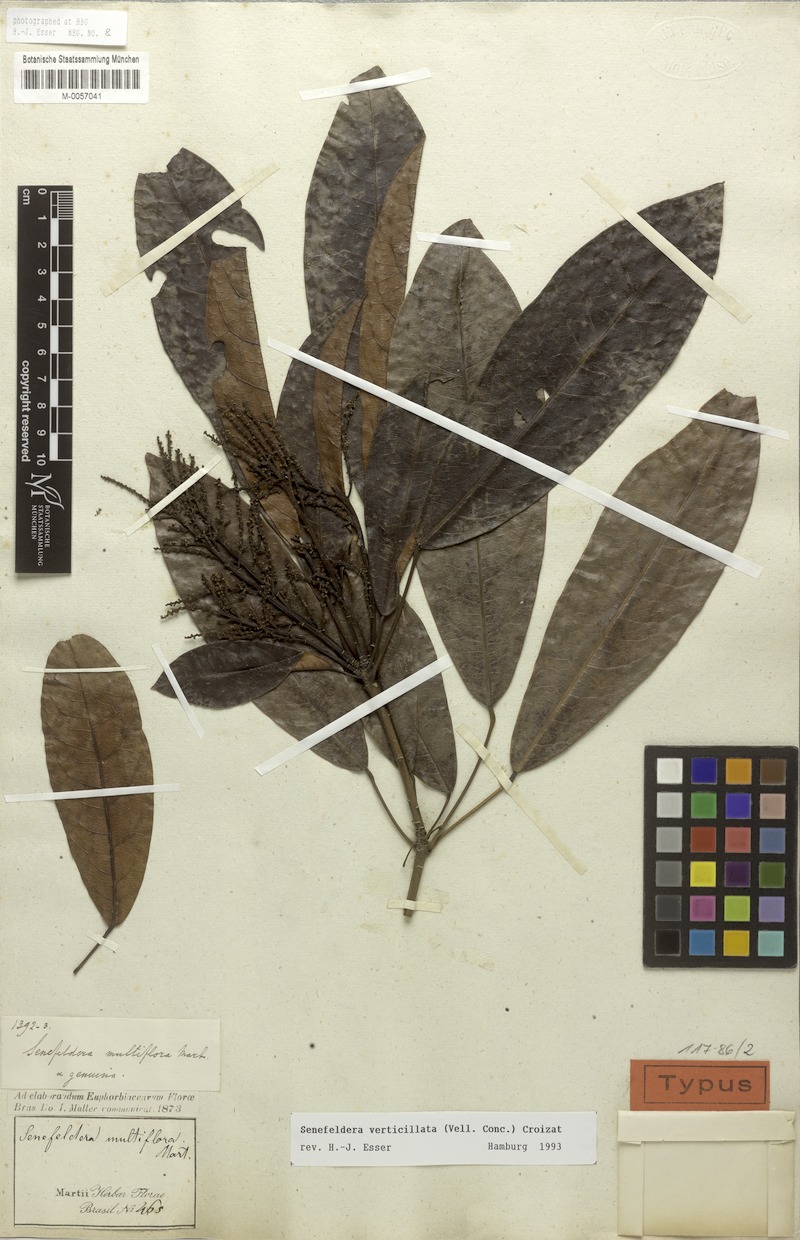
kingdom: Plantae
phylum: Tracheophyta
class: Magnoliopsida
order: Malpighiales
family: Euphorbiaceae
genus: Senefeldera
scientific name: Senefeldera verticillata
